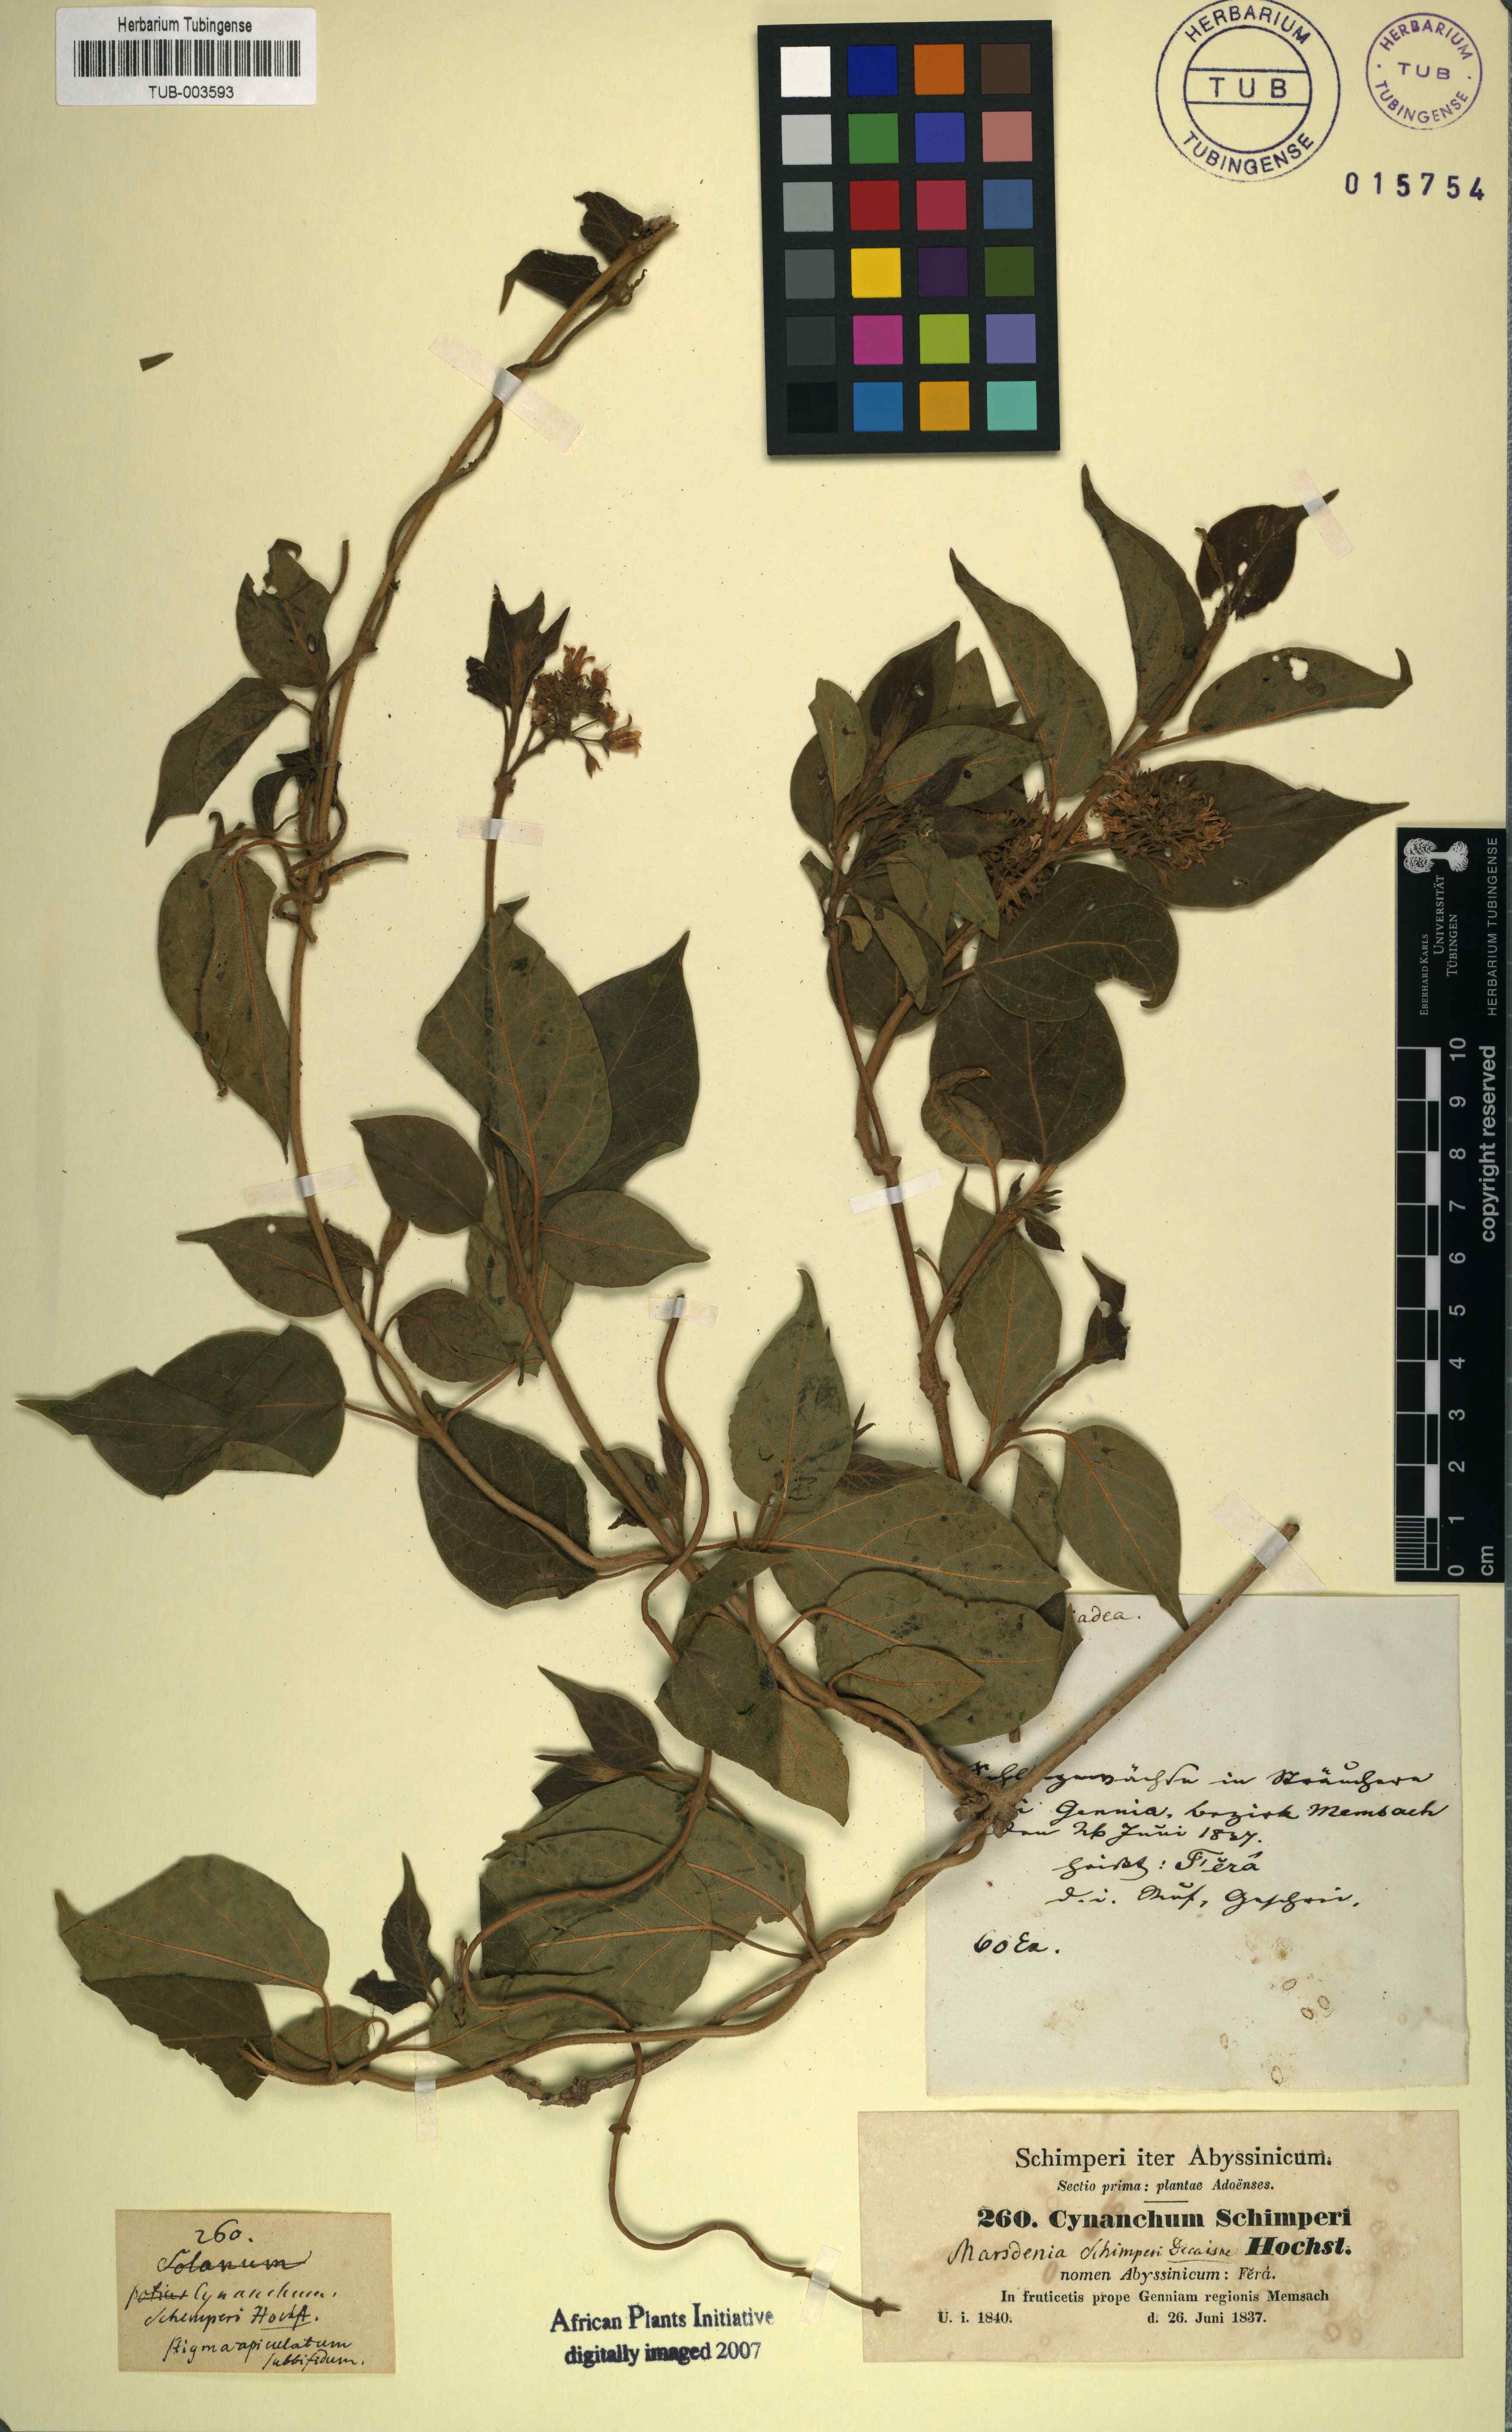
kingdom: Plantae
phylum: Tracheophyta
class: Magnoliopsida
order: Gentianales
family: Apocynaceae
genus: Stephanotis
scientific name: Stephanotis schimperi
